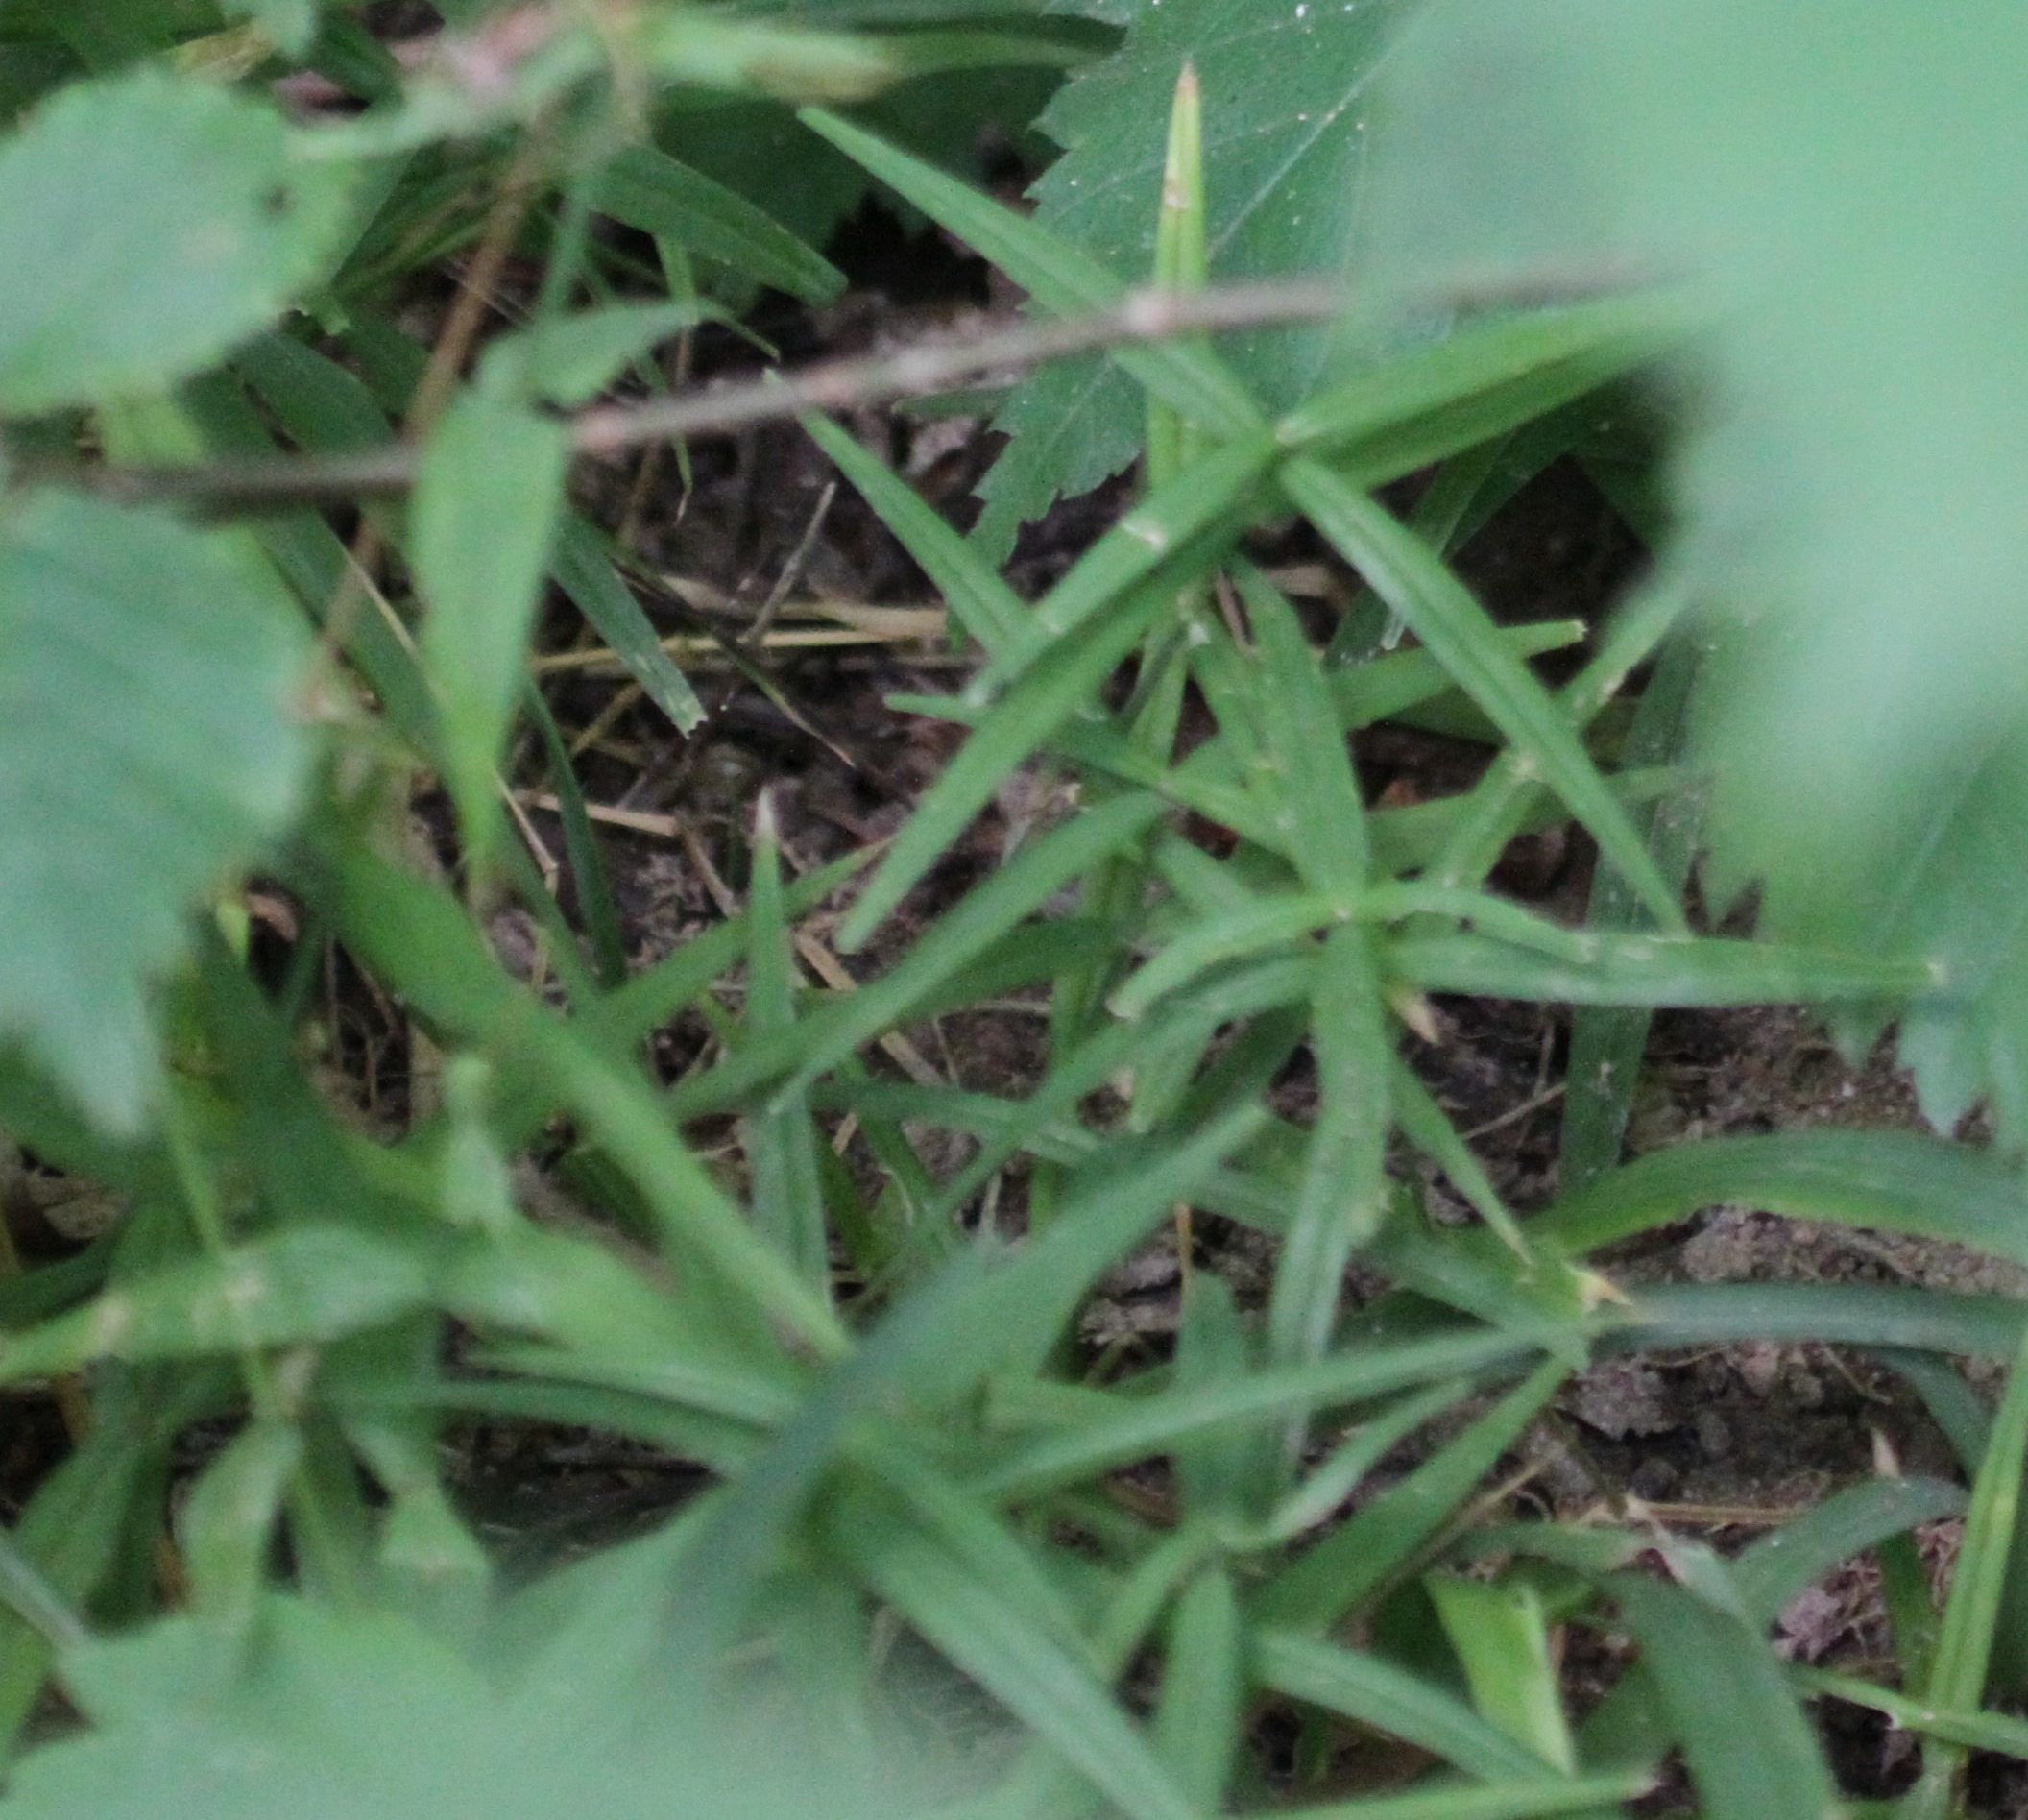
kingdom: Plantae
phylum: Tracheophyta
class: Magnoliopsida
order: Caryophyllales
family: Caryophyllaceae
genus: Rabelera
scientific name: Rabelera holostea
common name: Stor fladstjerne
